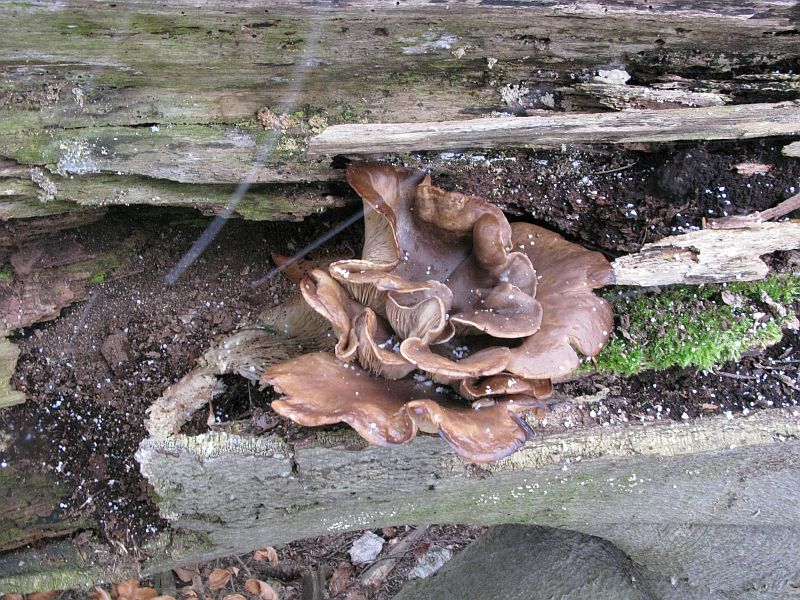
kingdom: Fungi
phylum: Basidiomycota
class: Agaricomycetes
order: Agaricales
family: Pleurotaceae
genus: Pleurotus
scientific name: Pleurotus ostreatus
